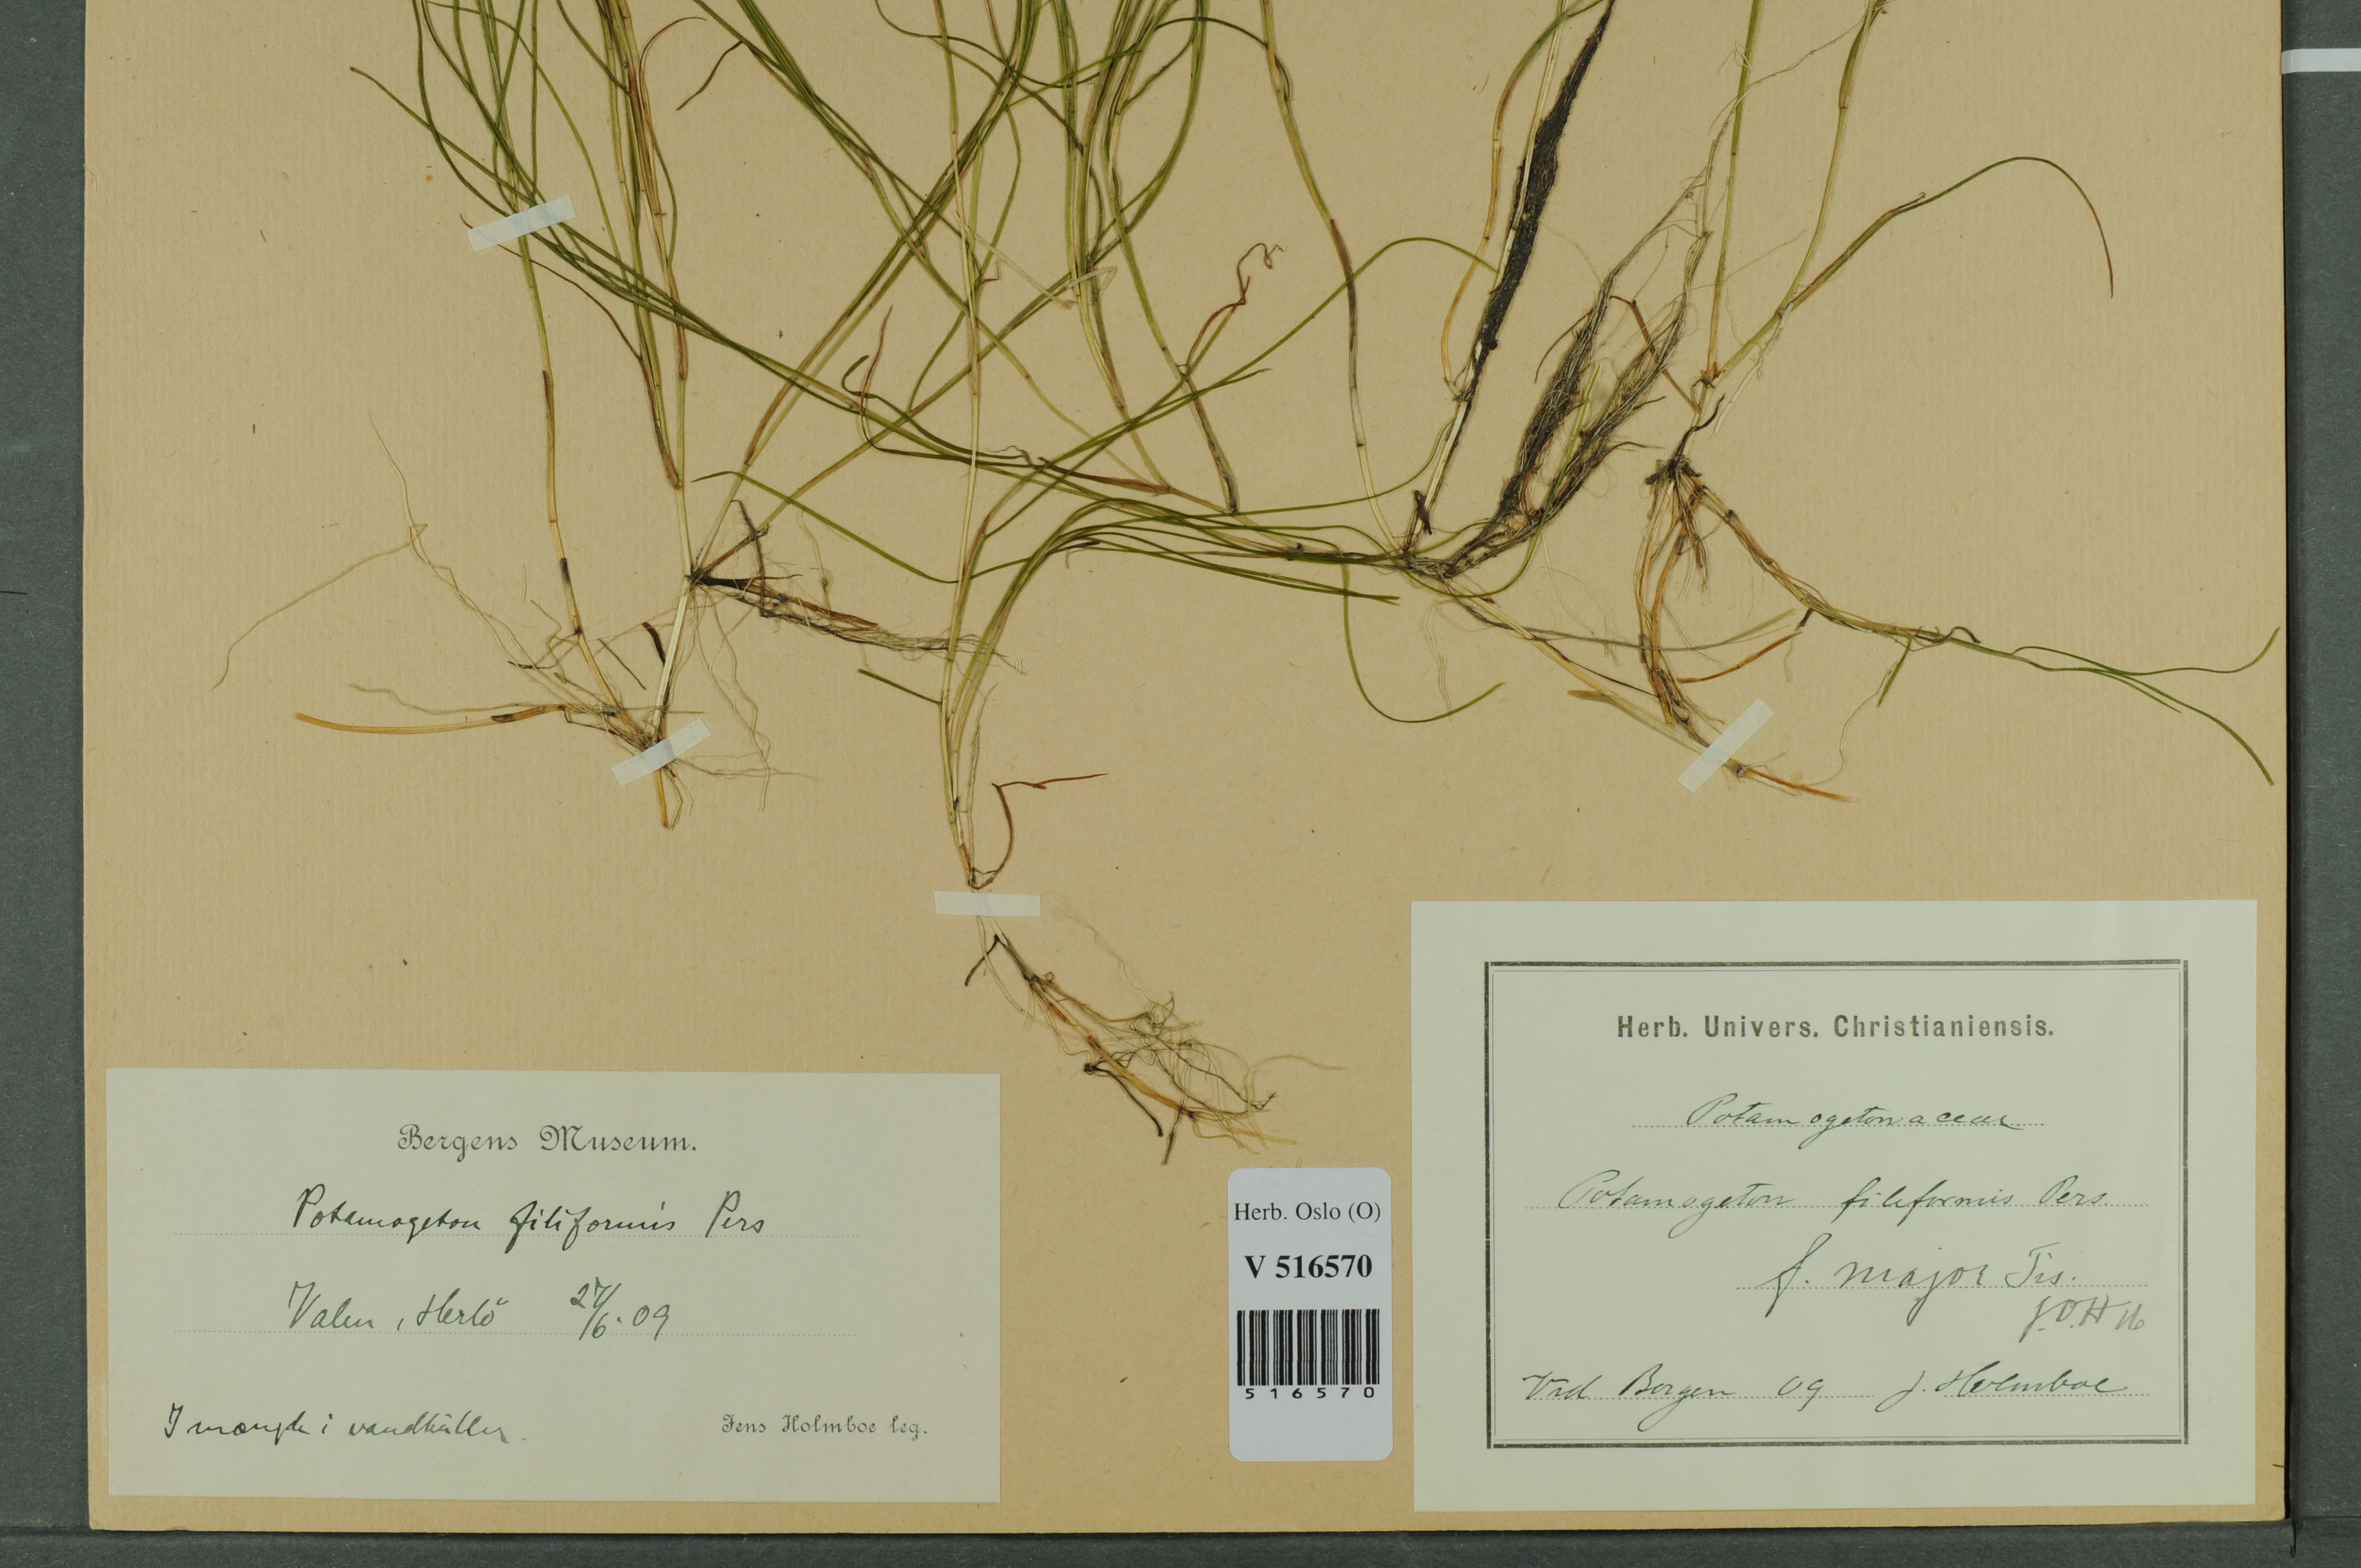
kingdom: Plantae
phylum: Tracheophyta
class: Liliopsida
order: Alismatales
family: Potamogetonaceae
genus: Stuckenia
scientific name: Stuckenia filiformis
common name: Alpine thread-leaved pondweed
